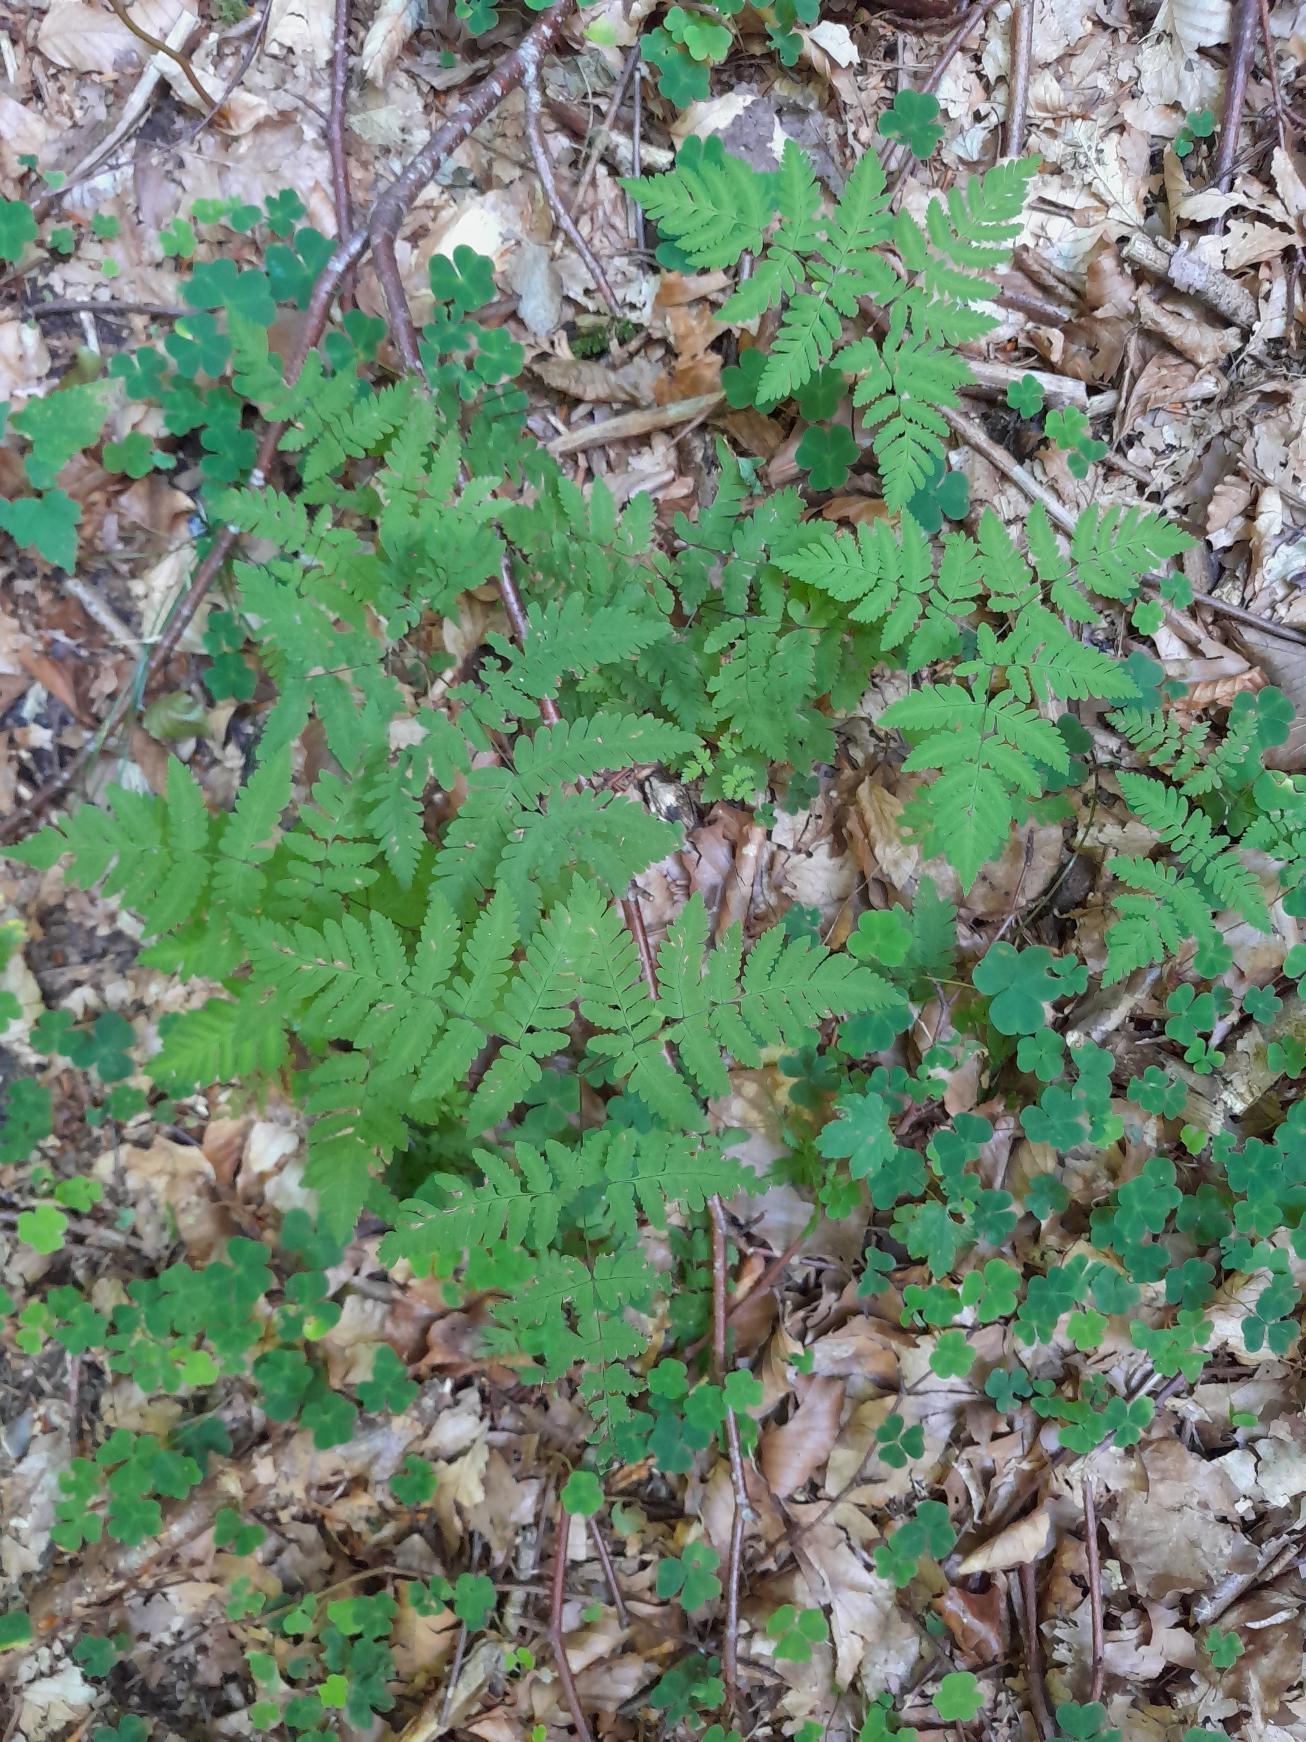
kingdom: Plantae
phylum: Tracheophyta
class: Polypodiopsida
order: Polypodiales
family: Cystopteridaceae
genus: Gymnocarpium
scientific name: Gymnocarpium dryopteris
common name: Tredelt egebregne
